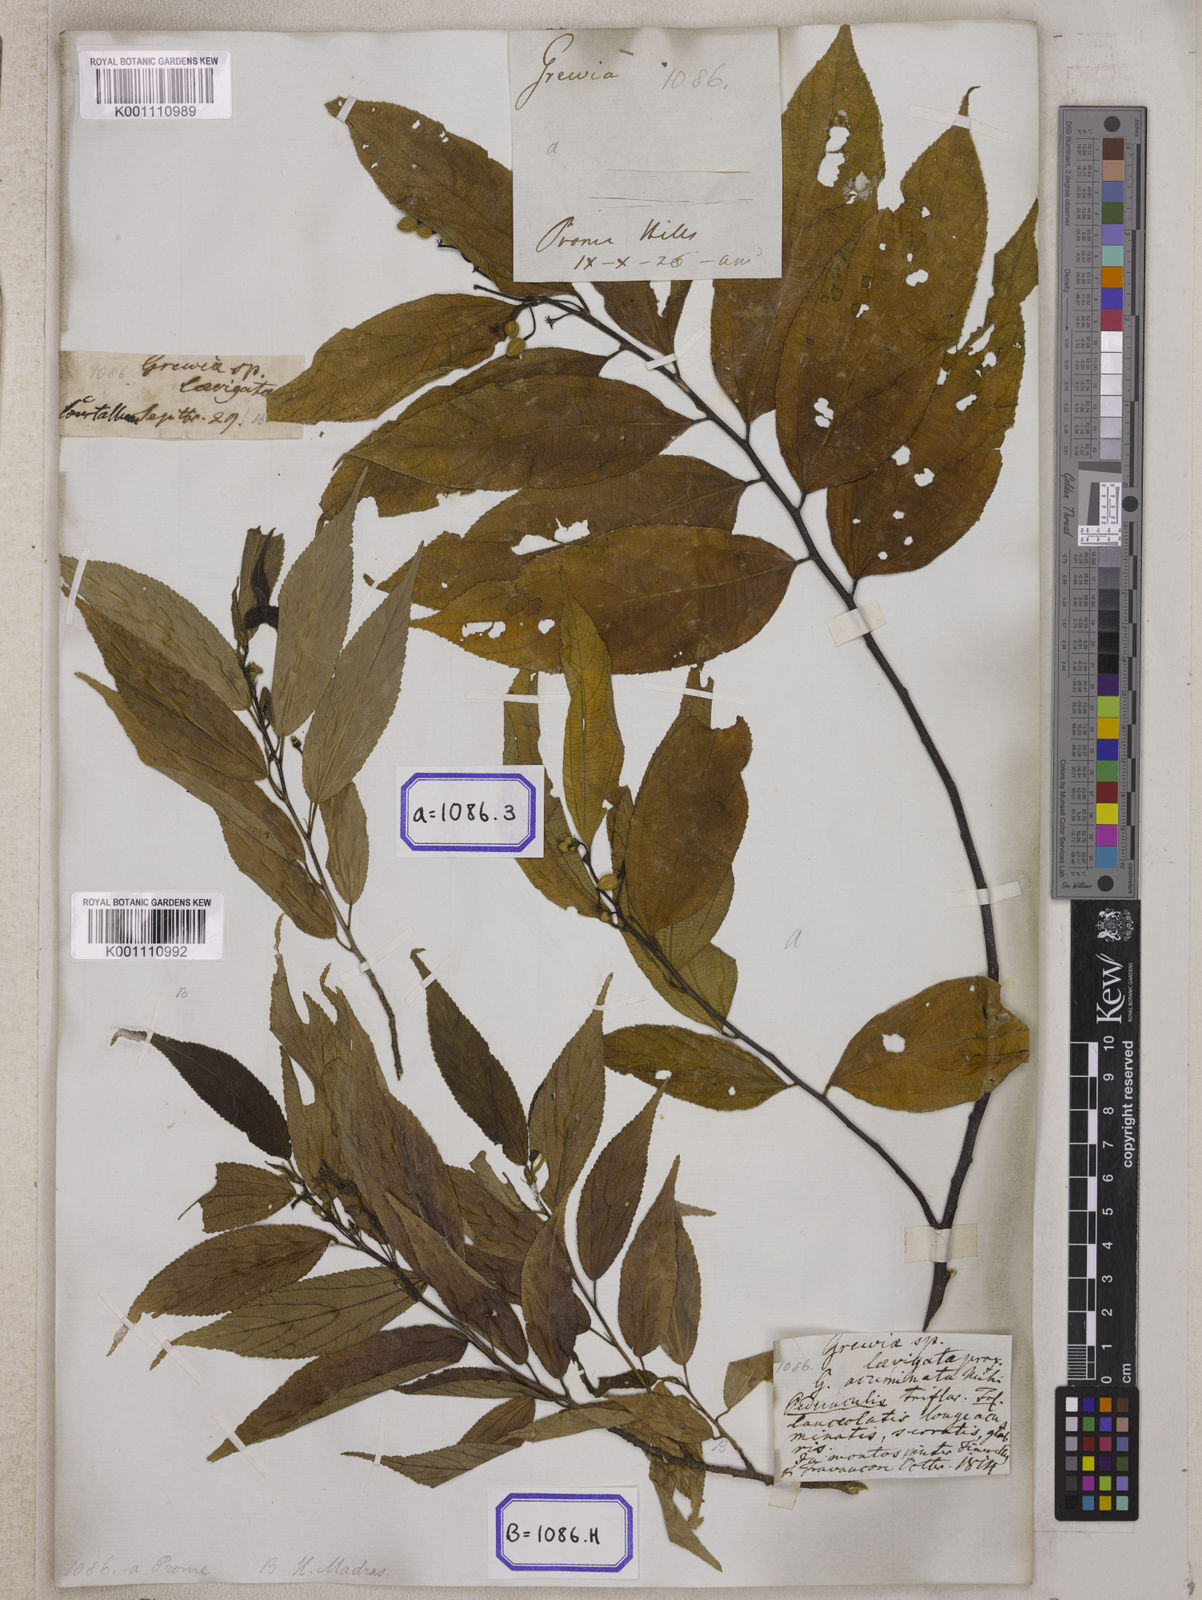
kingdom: Plantae
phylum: Tracheophyta
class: Magnoliopsida
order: Malvales
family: Malvaceae
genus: Grewia
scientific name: Grewia
